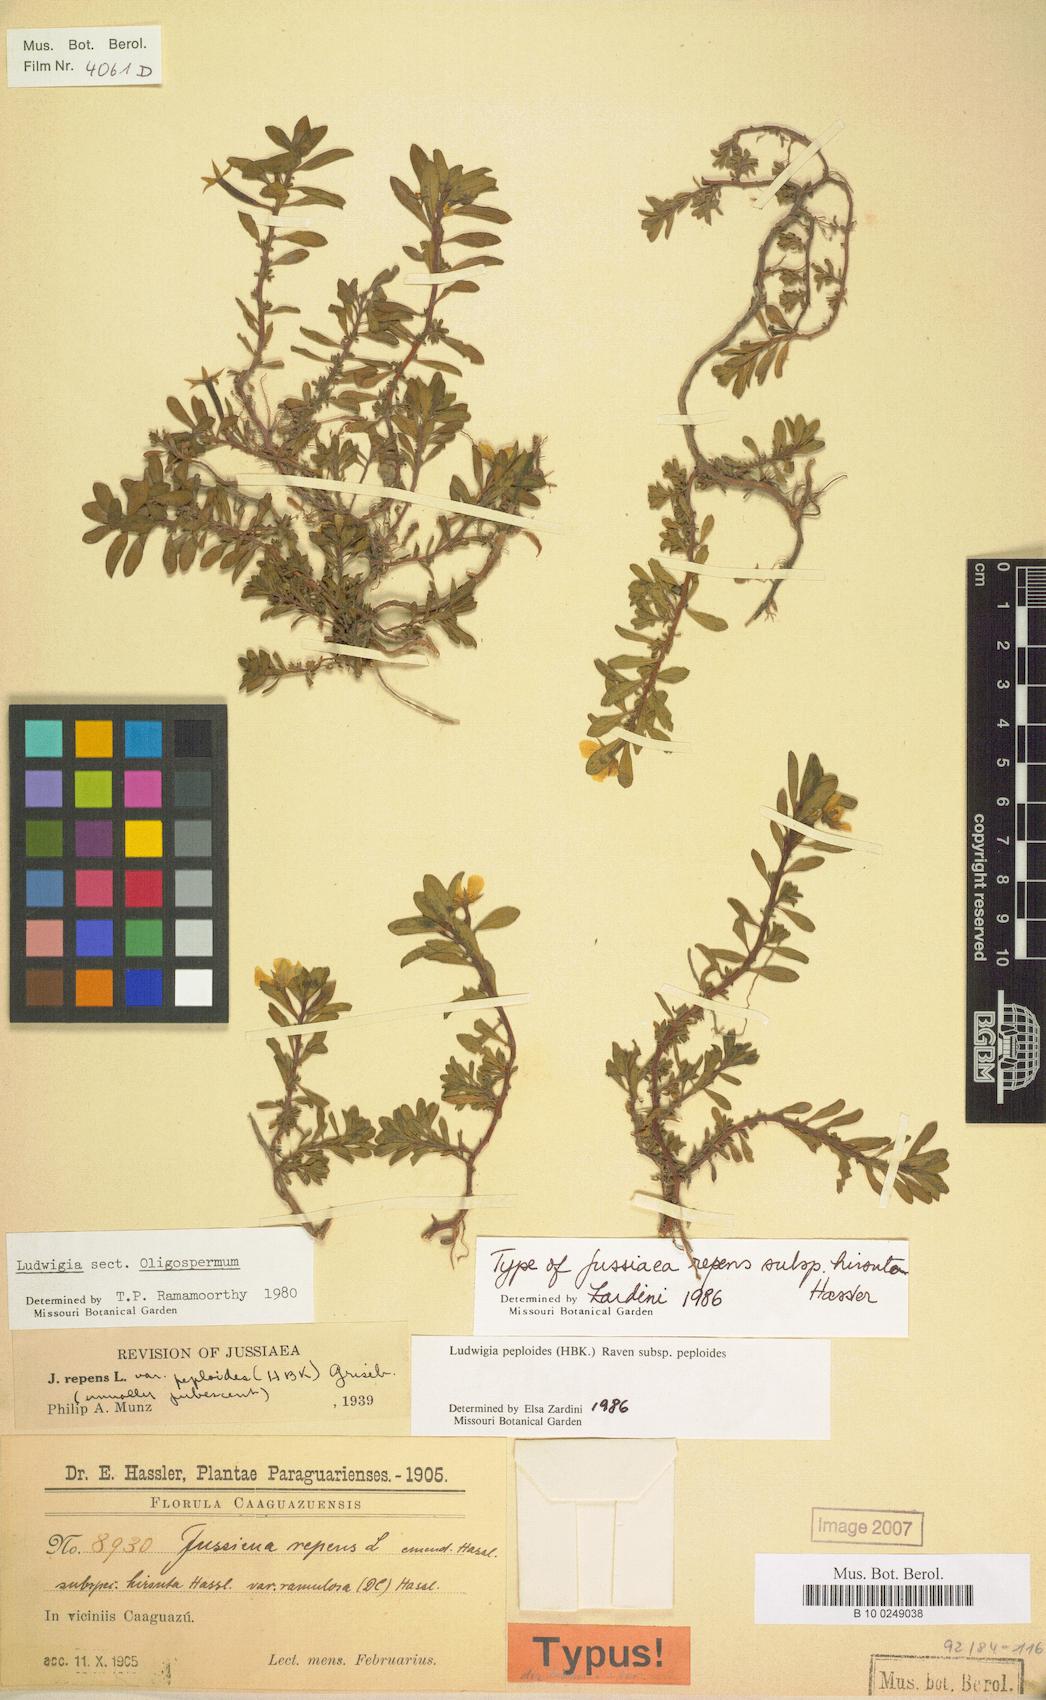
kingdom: Plantae
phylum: Tracheophyta
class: Magnoliopsida
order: Myrtales
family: Onagraceae
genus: Ludwigia
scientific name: Ludwigia peploides
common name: Floating primrose-willow
